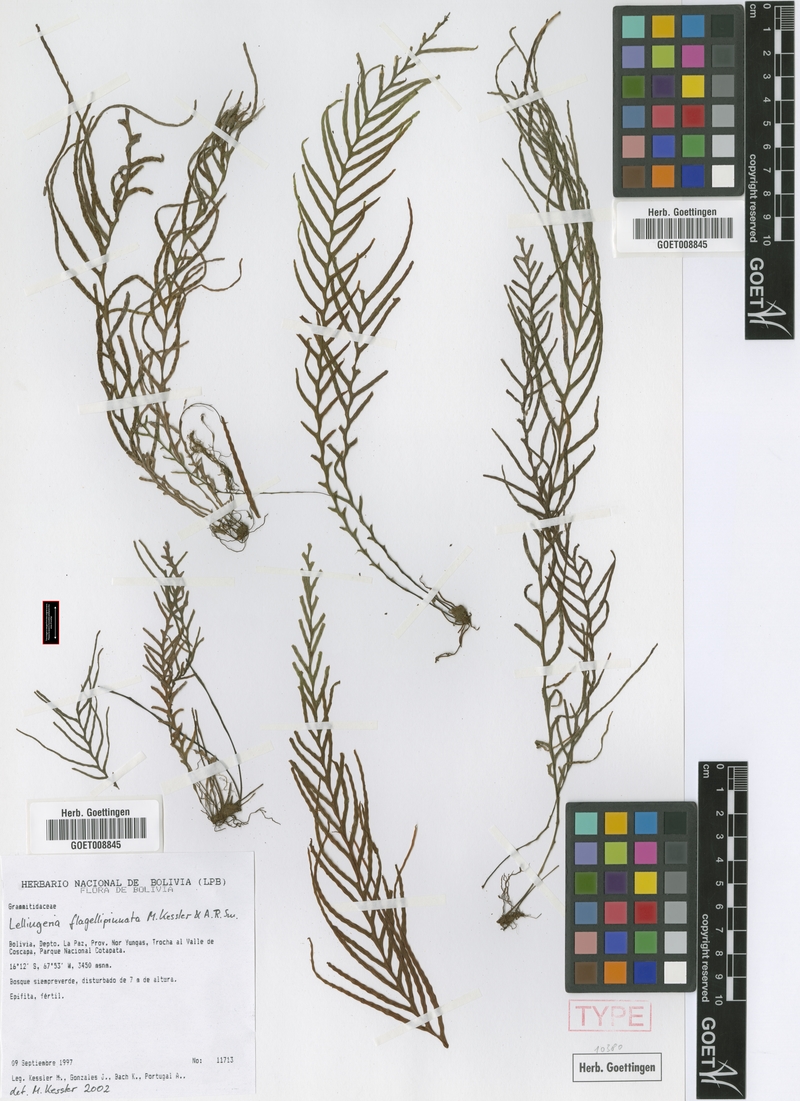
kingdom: Plantae
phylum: Tracheophyta
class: Polypodiopsida
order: Polypodiales
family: Polypodiaceae
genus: Lellingeria
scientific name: Lellingeria flagellipinnata
